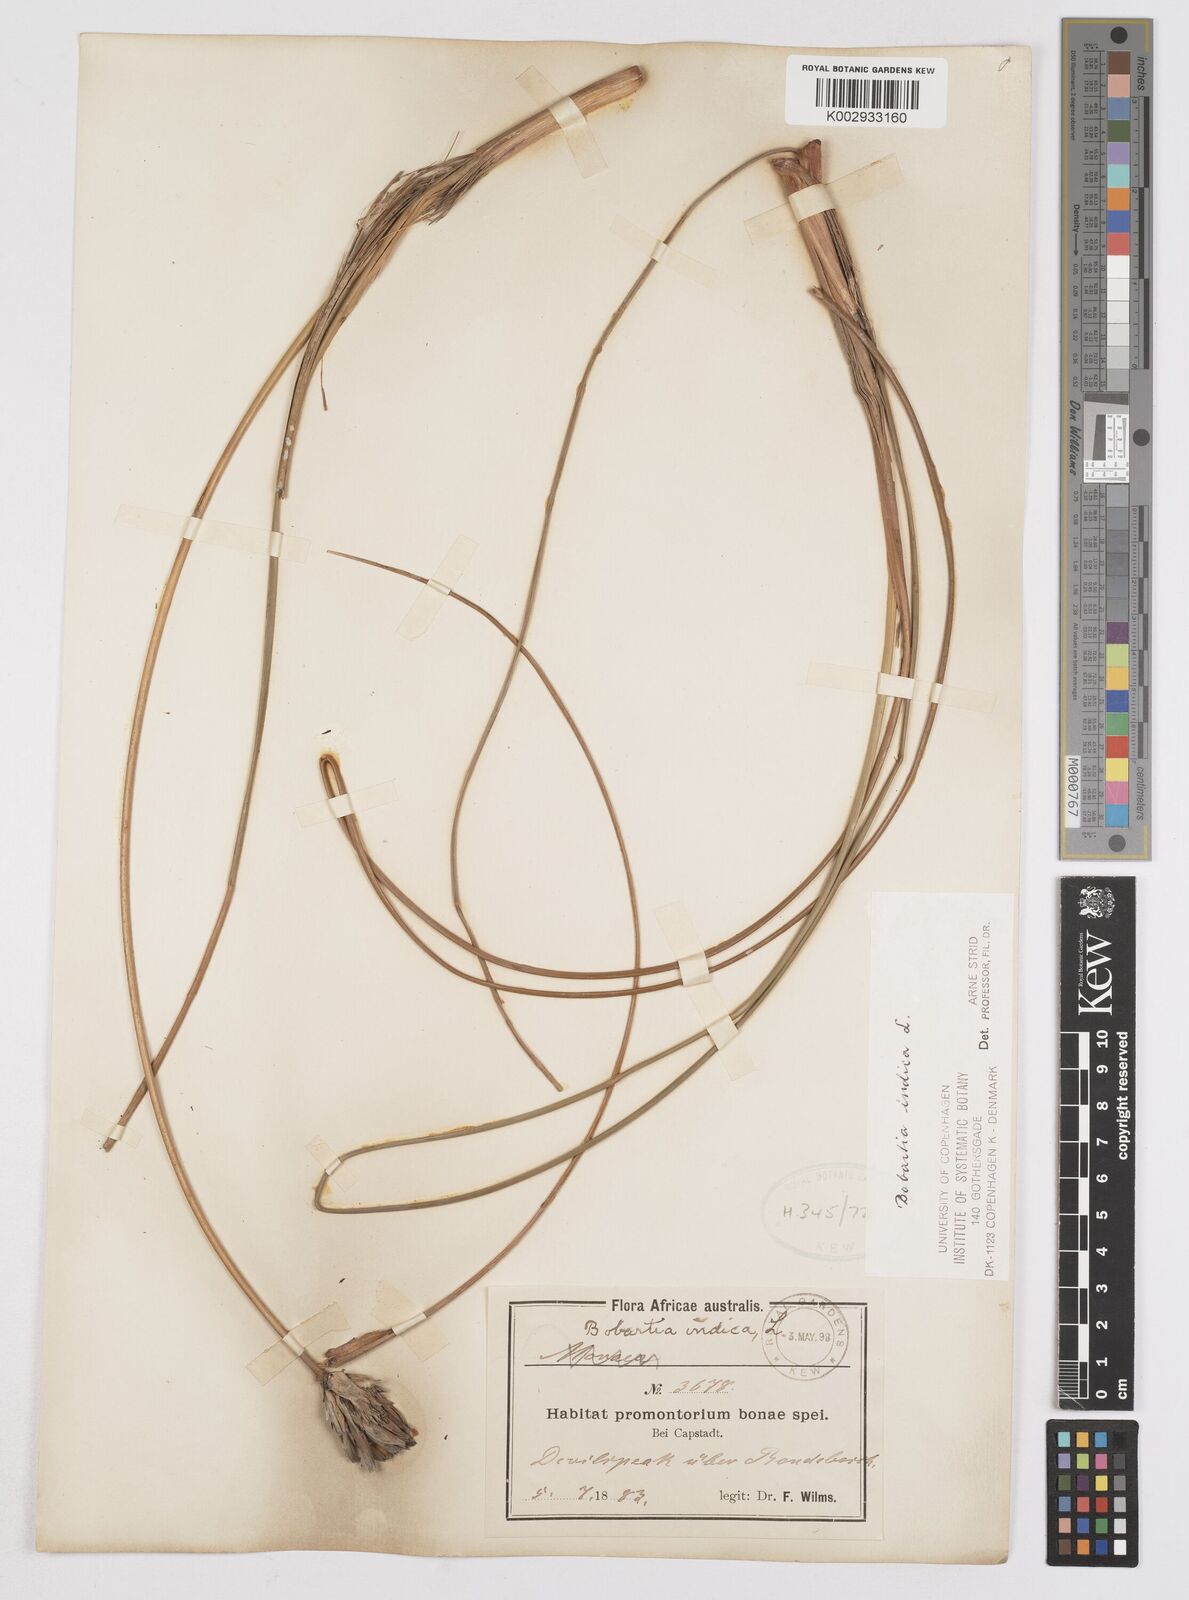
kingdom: Plantae
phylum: Tracheophyta
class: Liliopsida
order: Asparagales
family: Iridaceae
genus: Bobartia
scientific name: Bobartia indica
